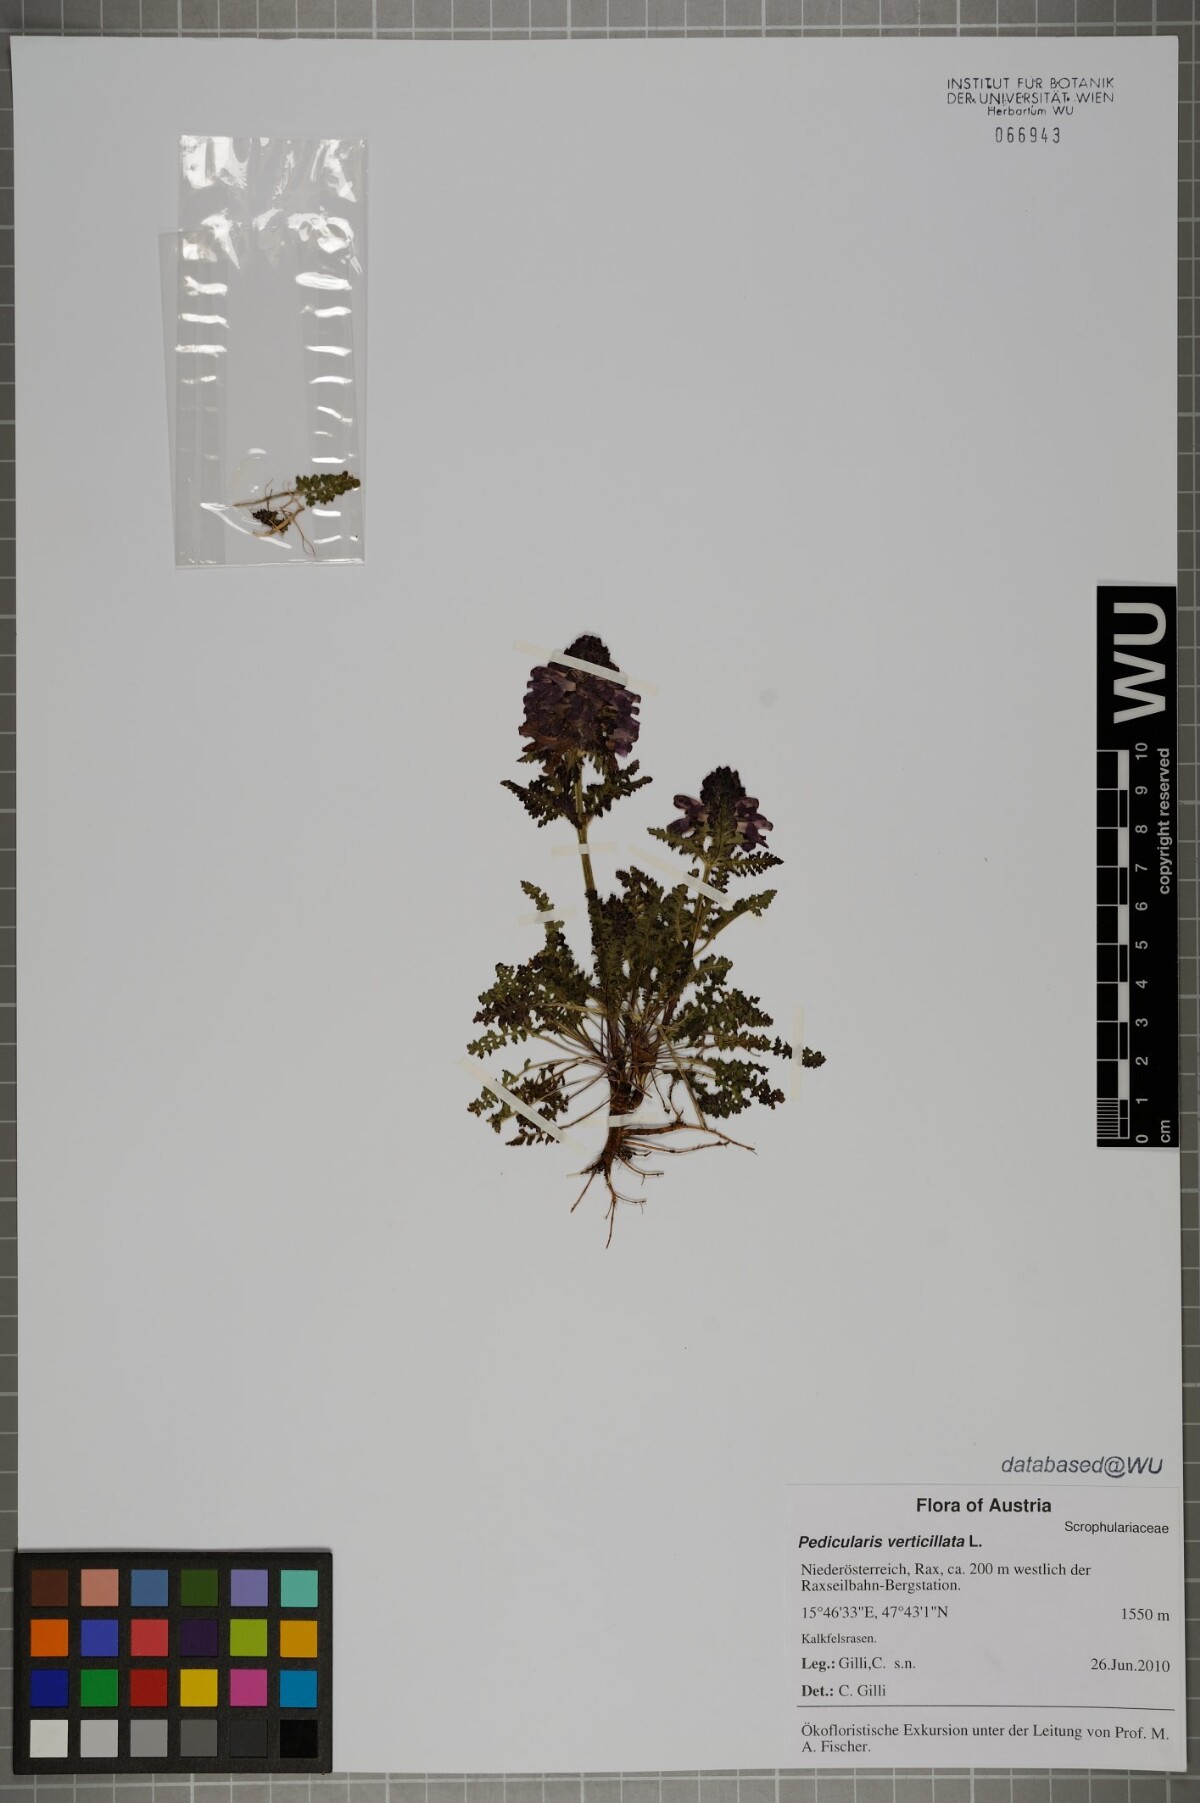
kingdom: Plantae
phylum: Tracheophyta
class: Magnoliopsida
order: Lamiales
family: Orobanchaceae
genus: Pedicularis
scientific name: Pedicularis verticillata
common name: Whorled lousewort
